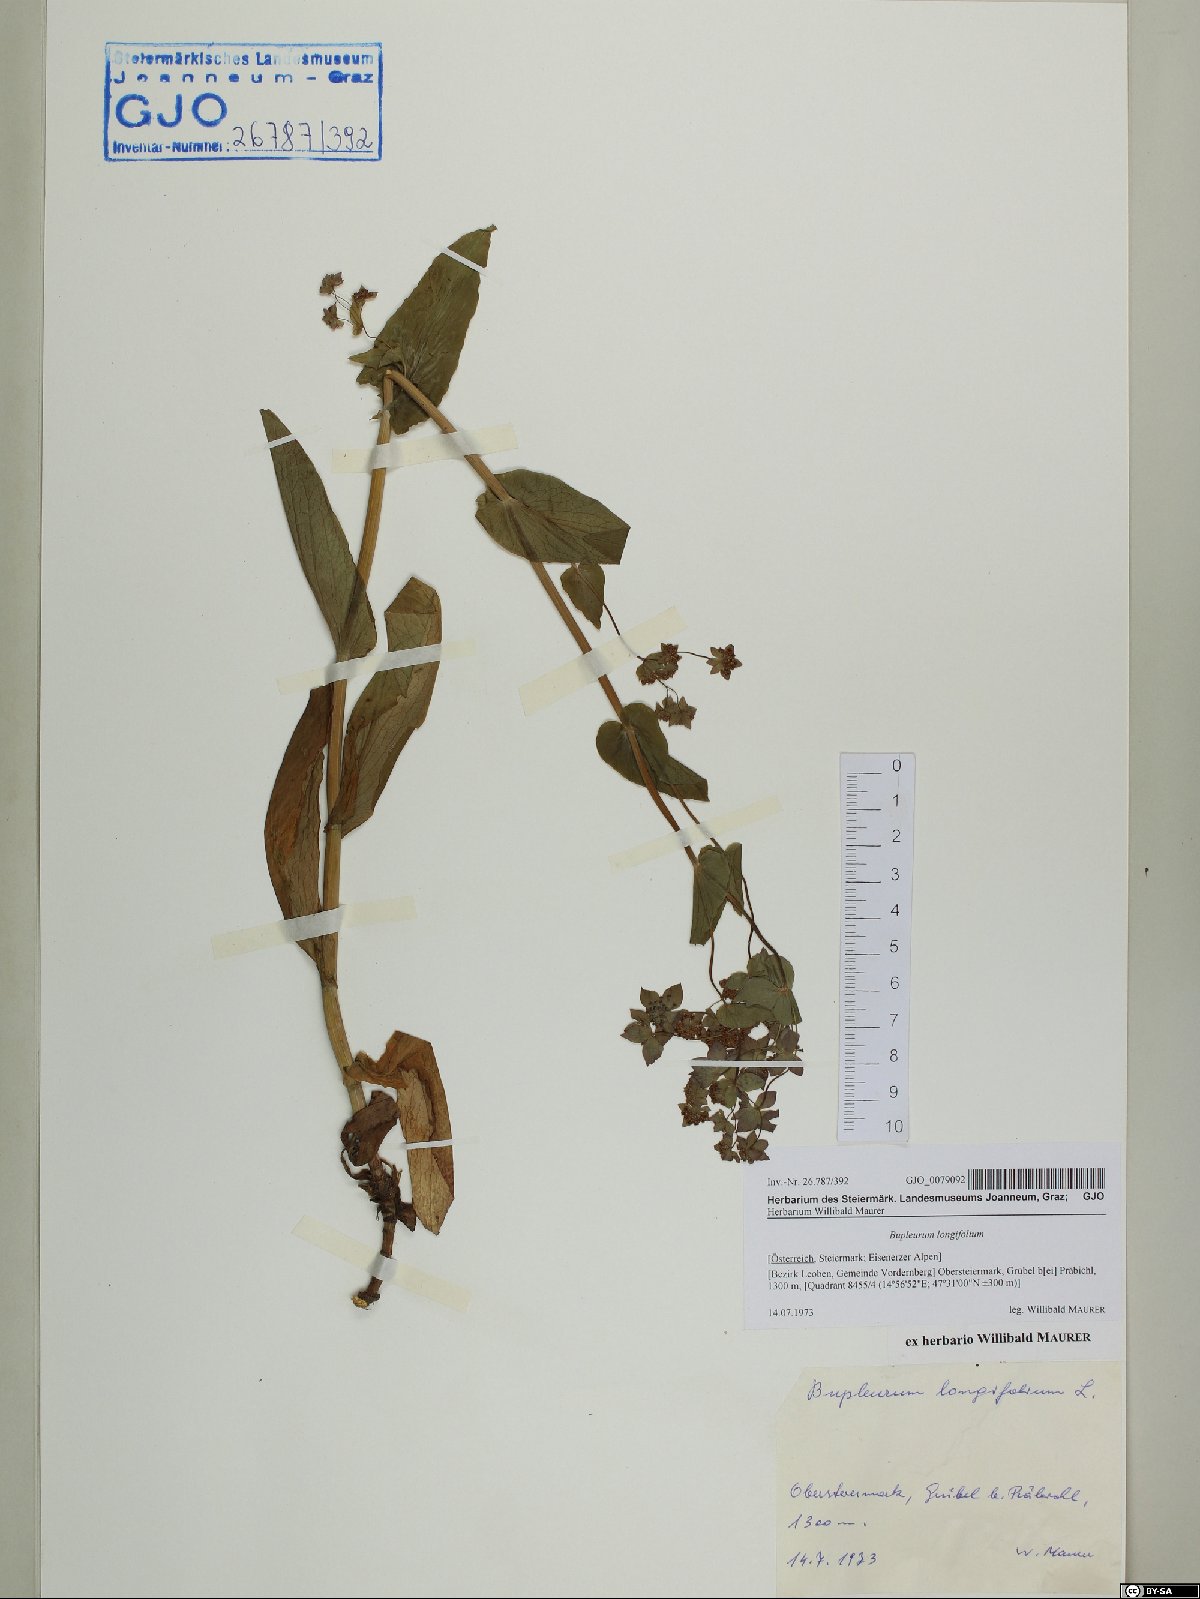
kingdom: Plantae
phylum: Tracheophyta
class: Magnoliopsida
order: Apiales
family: Apiaceae
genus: Bupleurum
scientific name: Bupleurum longifolium
